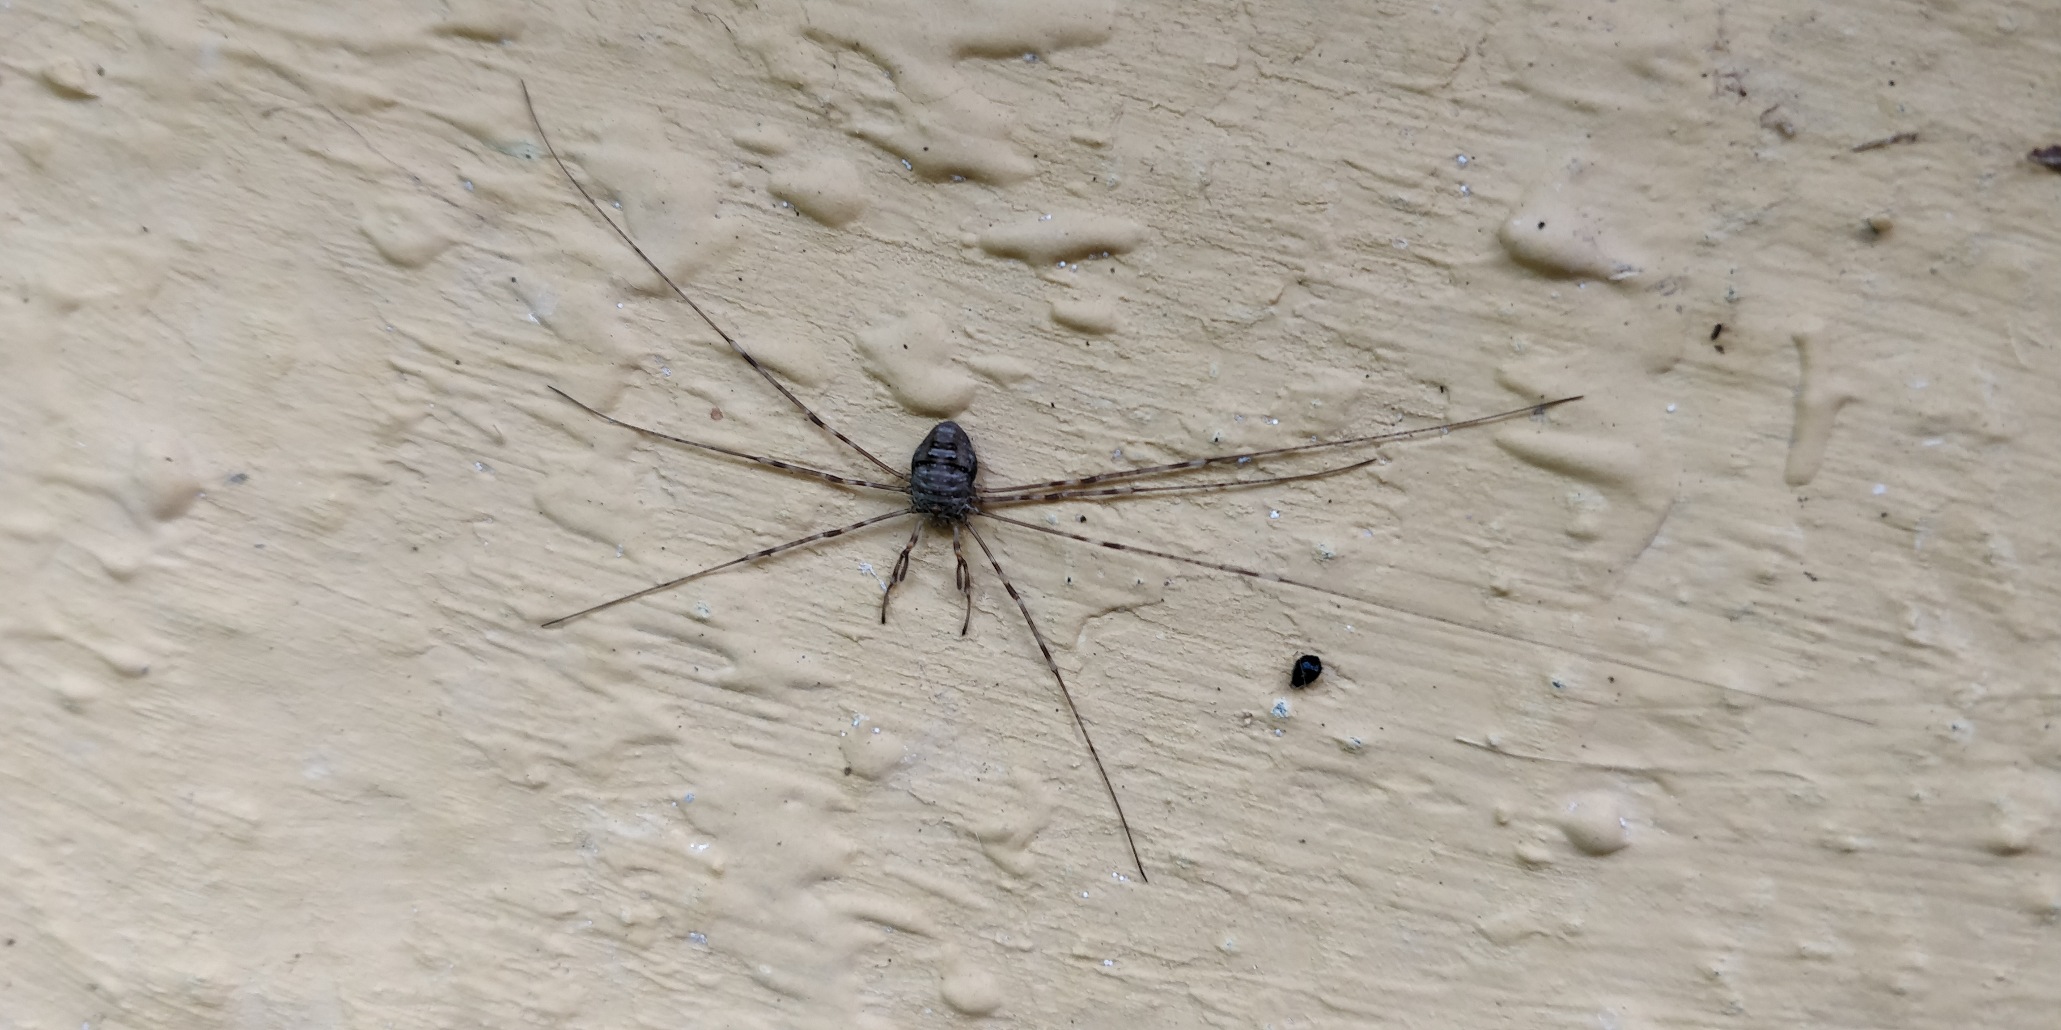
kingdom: Animalia
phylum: Arthropoda
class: Arachnida
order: Opiliones
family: Phalangiidae
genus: Dicranopalpus
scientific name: Dicranopalpus ramosus
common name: Gaffelmejer
